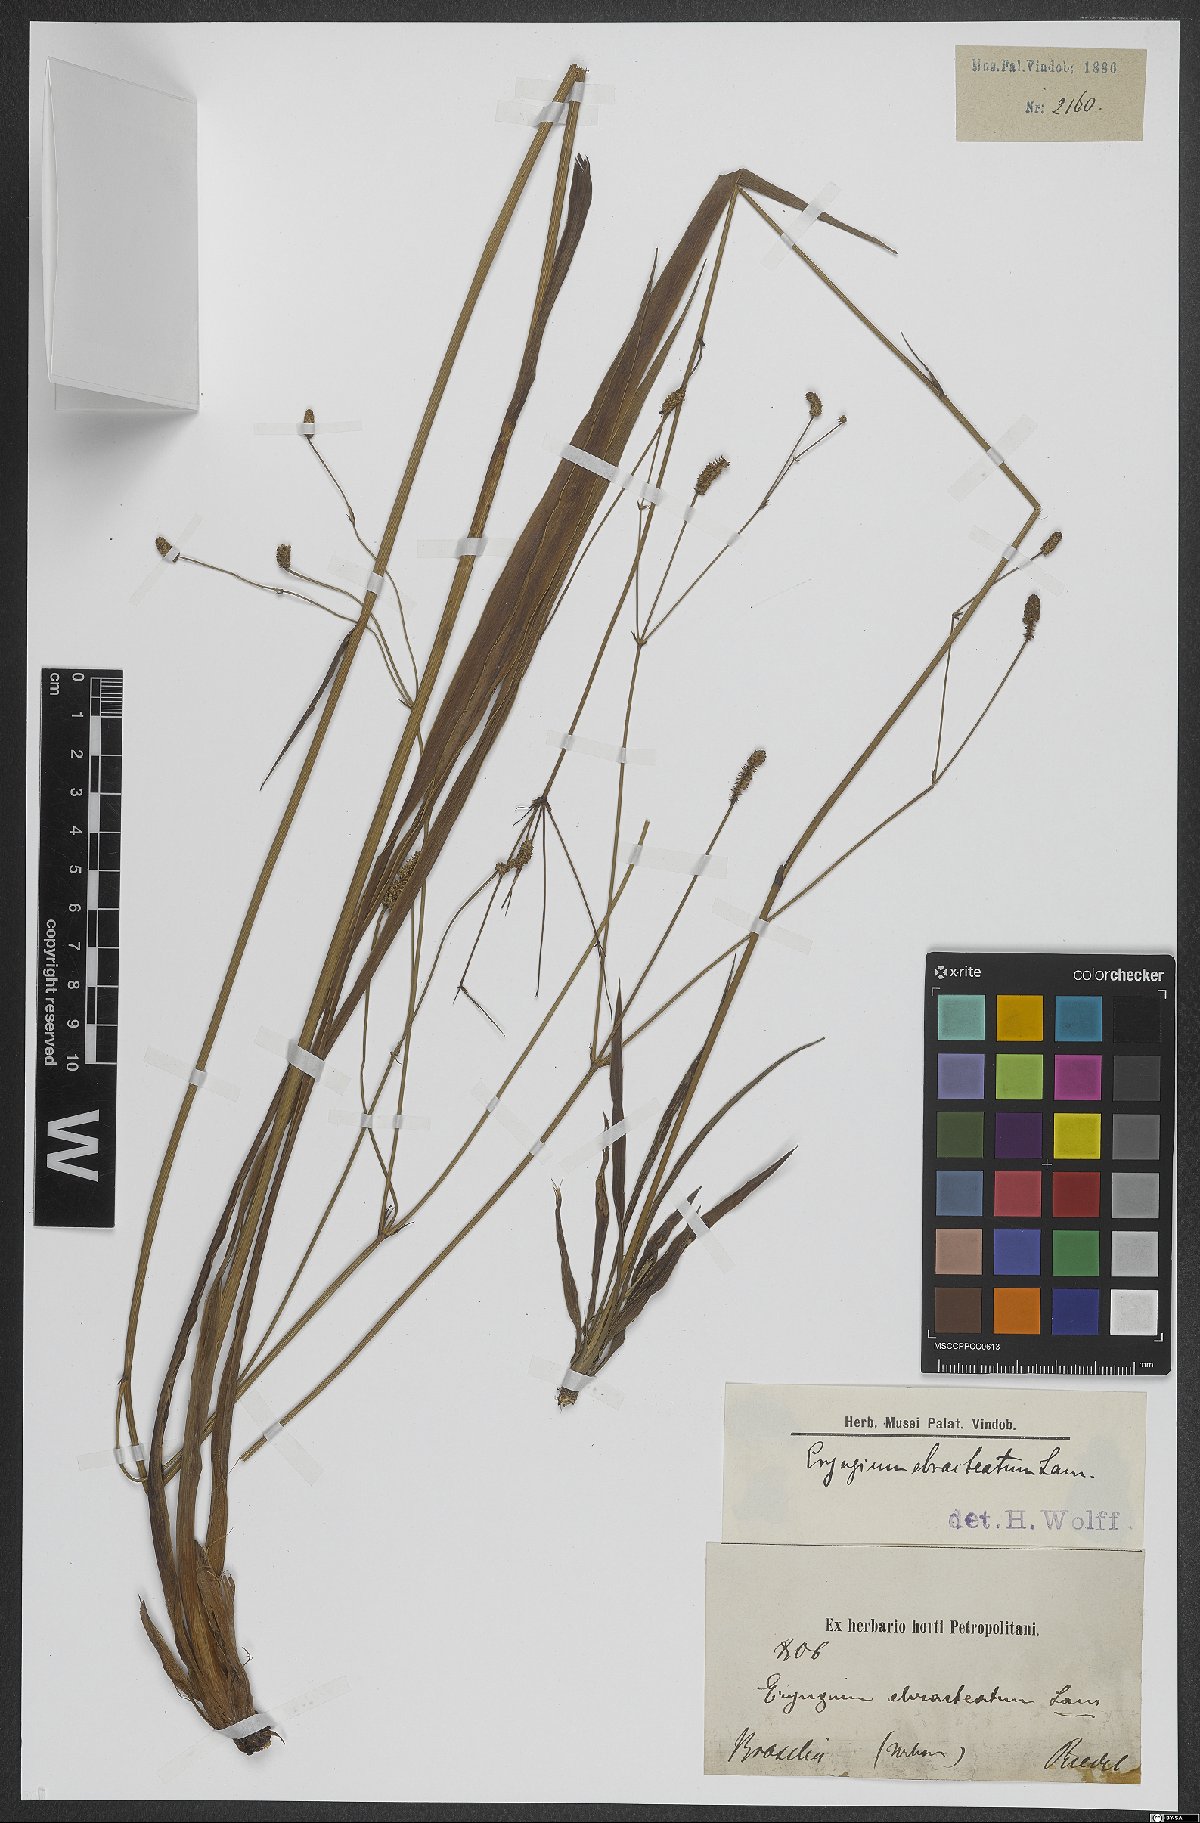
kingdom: Plantae
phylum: Tracheophyta
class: Magnoliopsida
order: Apiales
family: Apiaceae
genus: Eryngium
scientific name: Eryngium ebracteatum
